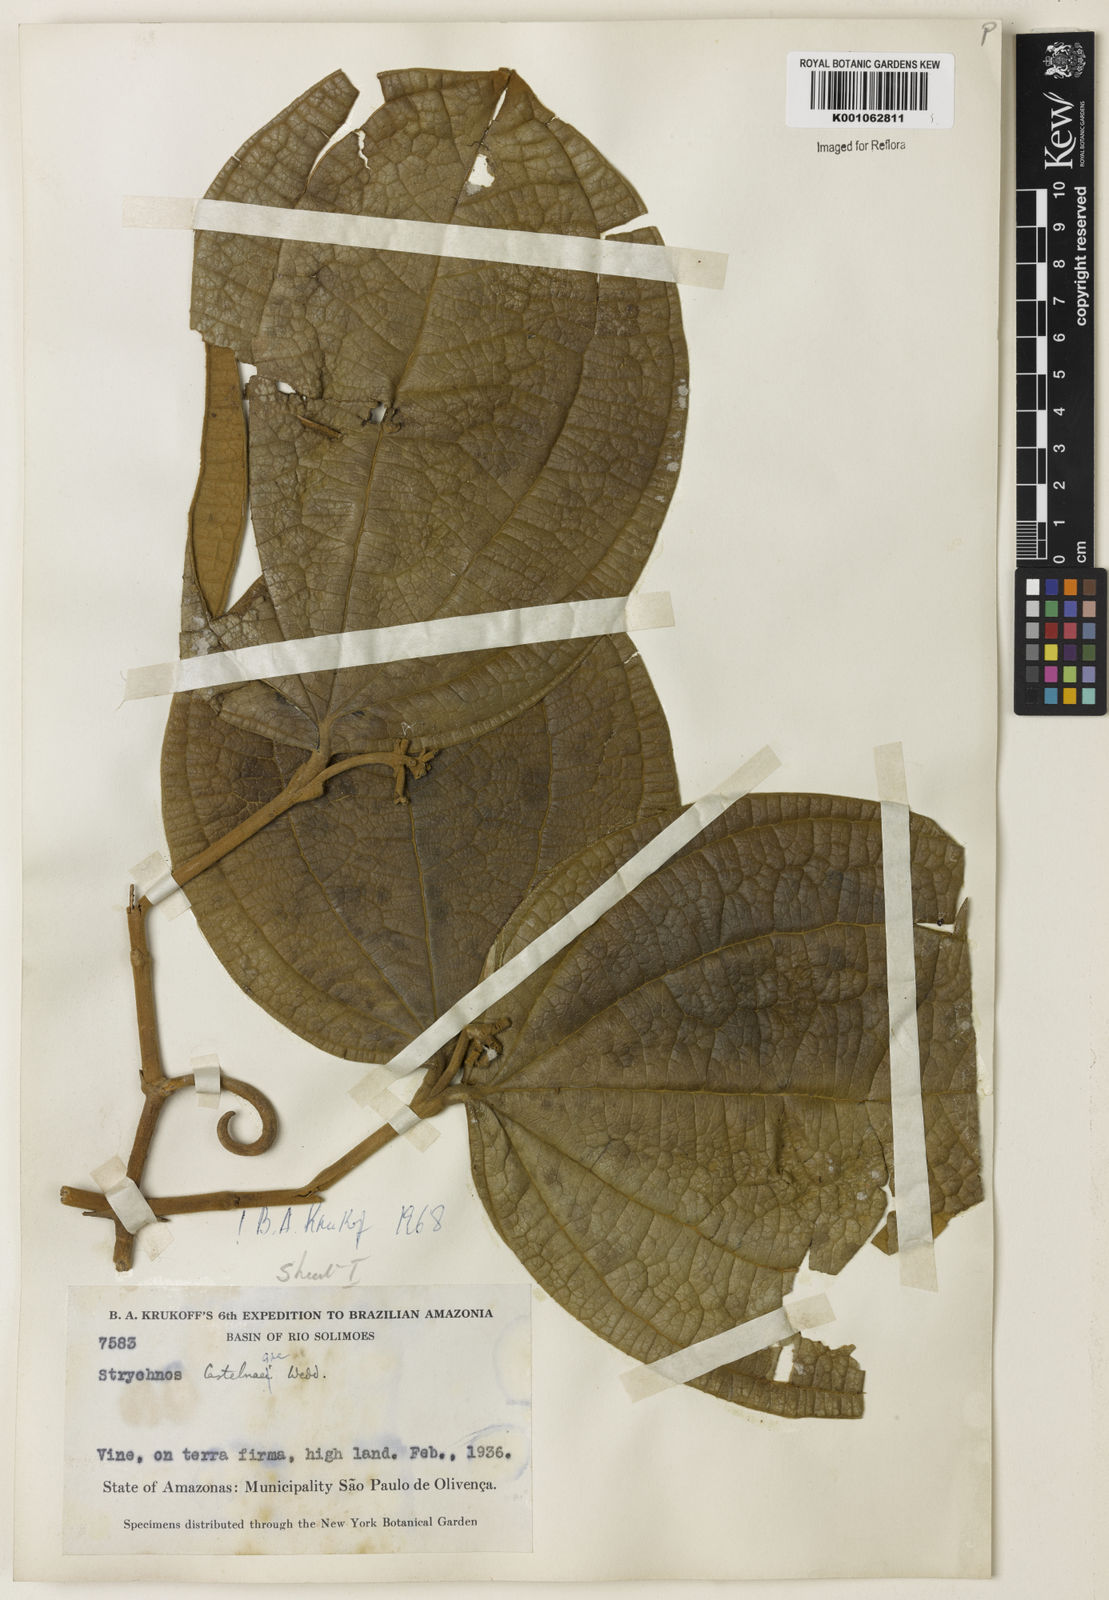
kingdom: Plantae
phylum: Tracheophyta
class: Magnoliopsida
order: Gentianales
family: Loganiaceae
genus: Strychnos
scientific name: Strychnos
